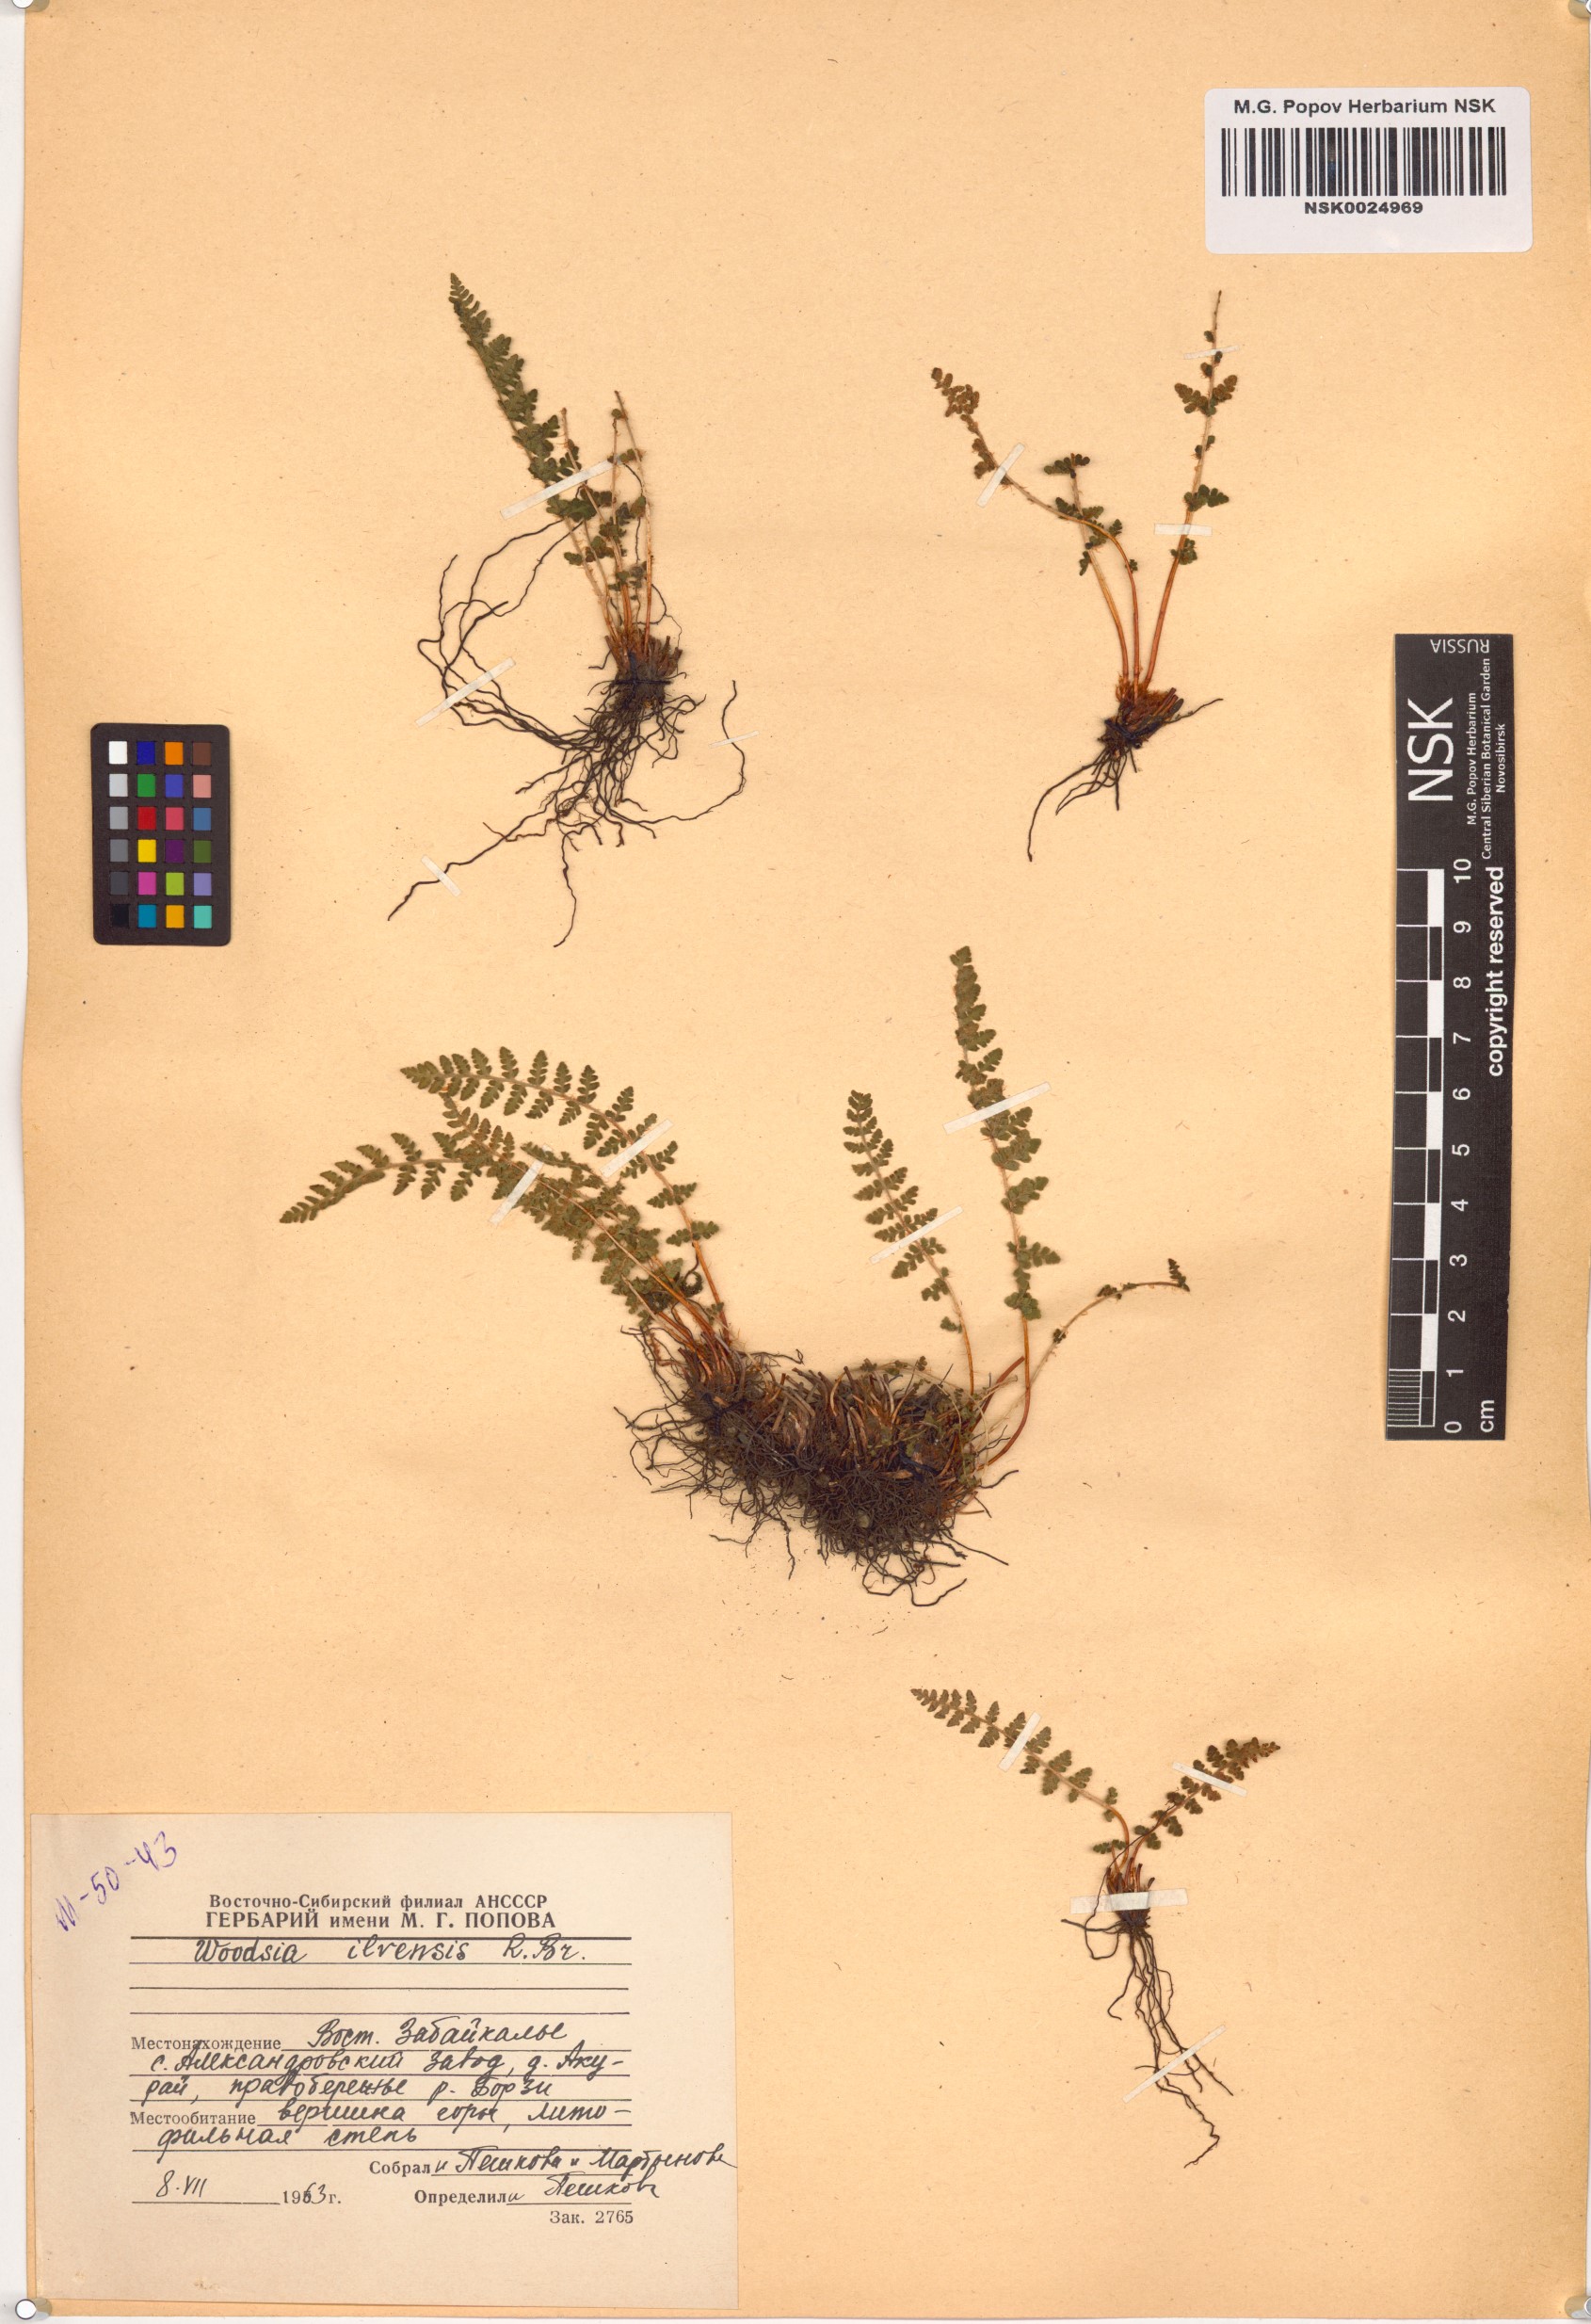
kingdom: Plantae
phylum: Tracheophyta
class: Polypodiopsida
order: Polypodiales
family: Woodsiaceae
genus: Woodsia
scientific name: Woodsia ilvensis
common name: Fragrant woodsia
